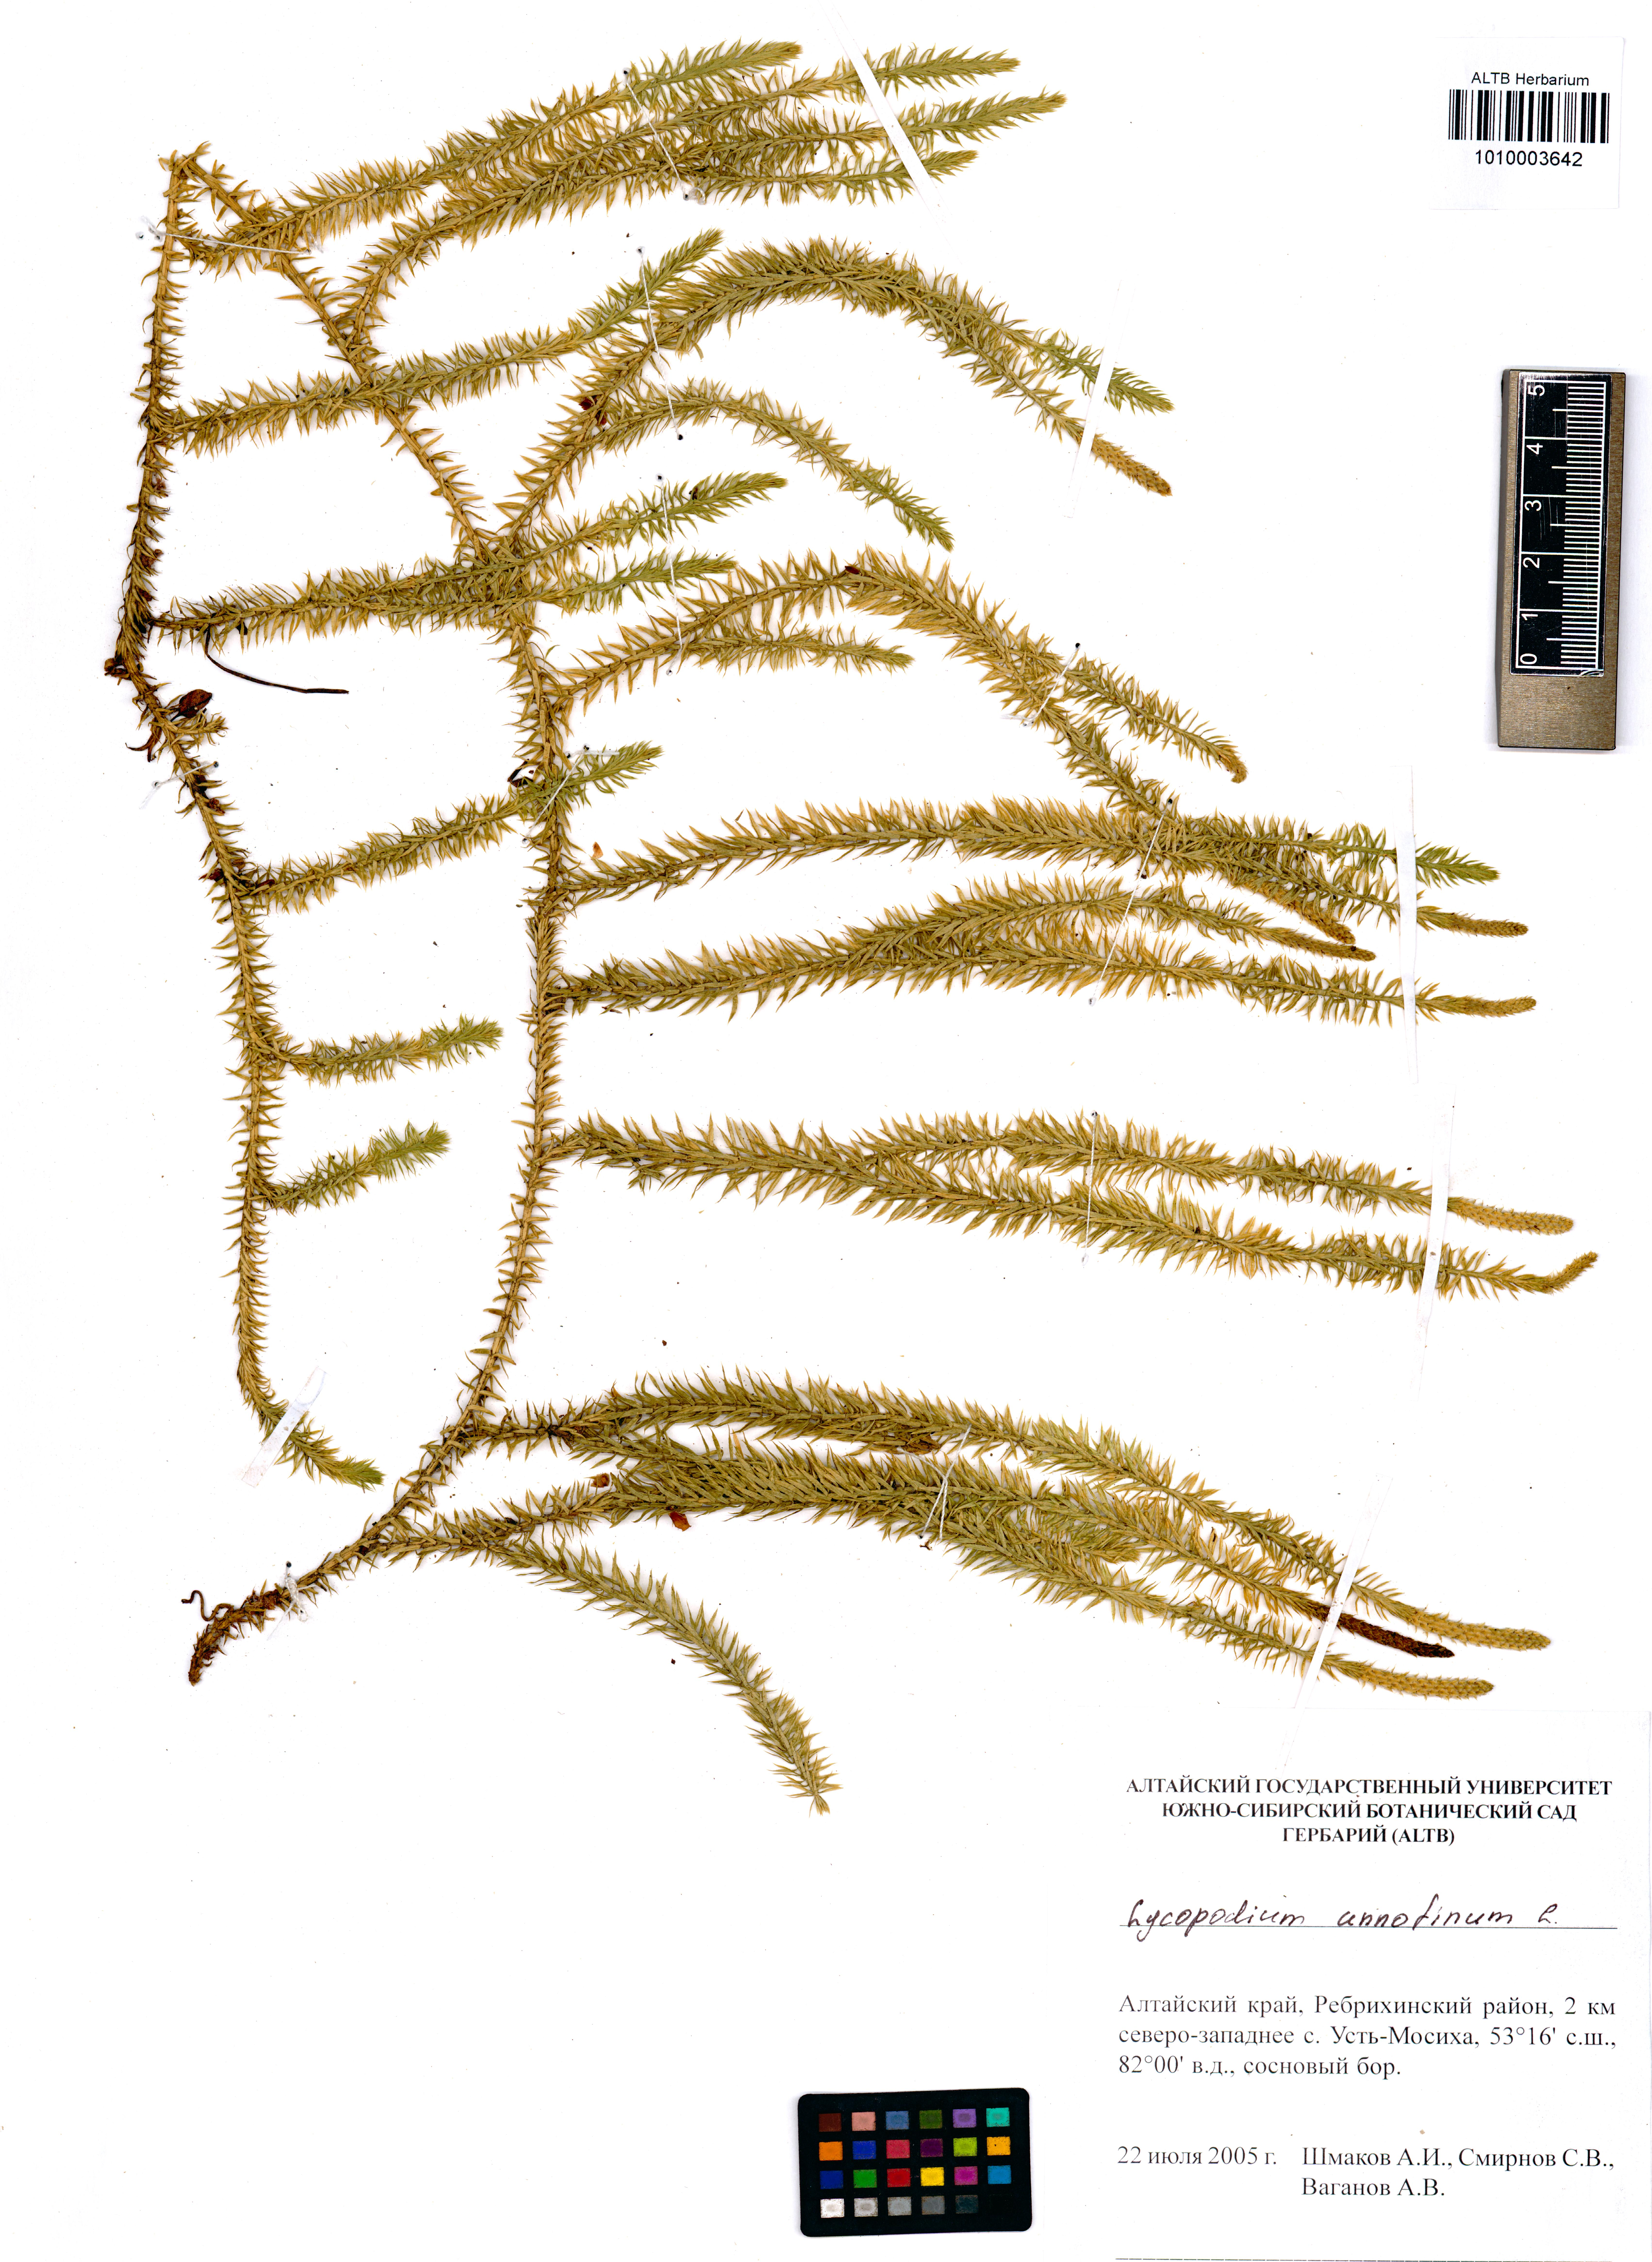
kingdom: Plantae
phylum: Tracheophyta
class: Lycopodiopsida
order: Lycopodiales
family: Lycopodiaceae
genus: Spinulum
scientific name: Spinulum annotinum
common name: Interrupted club-moss
